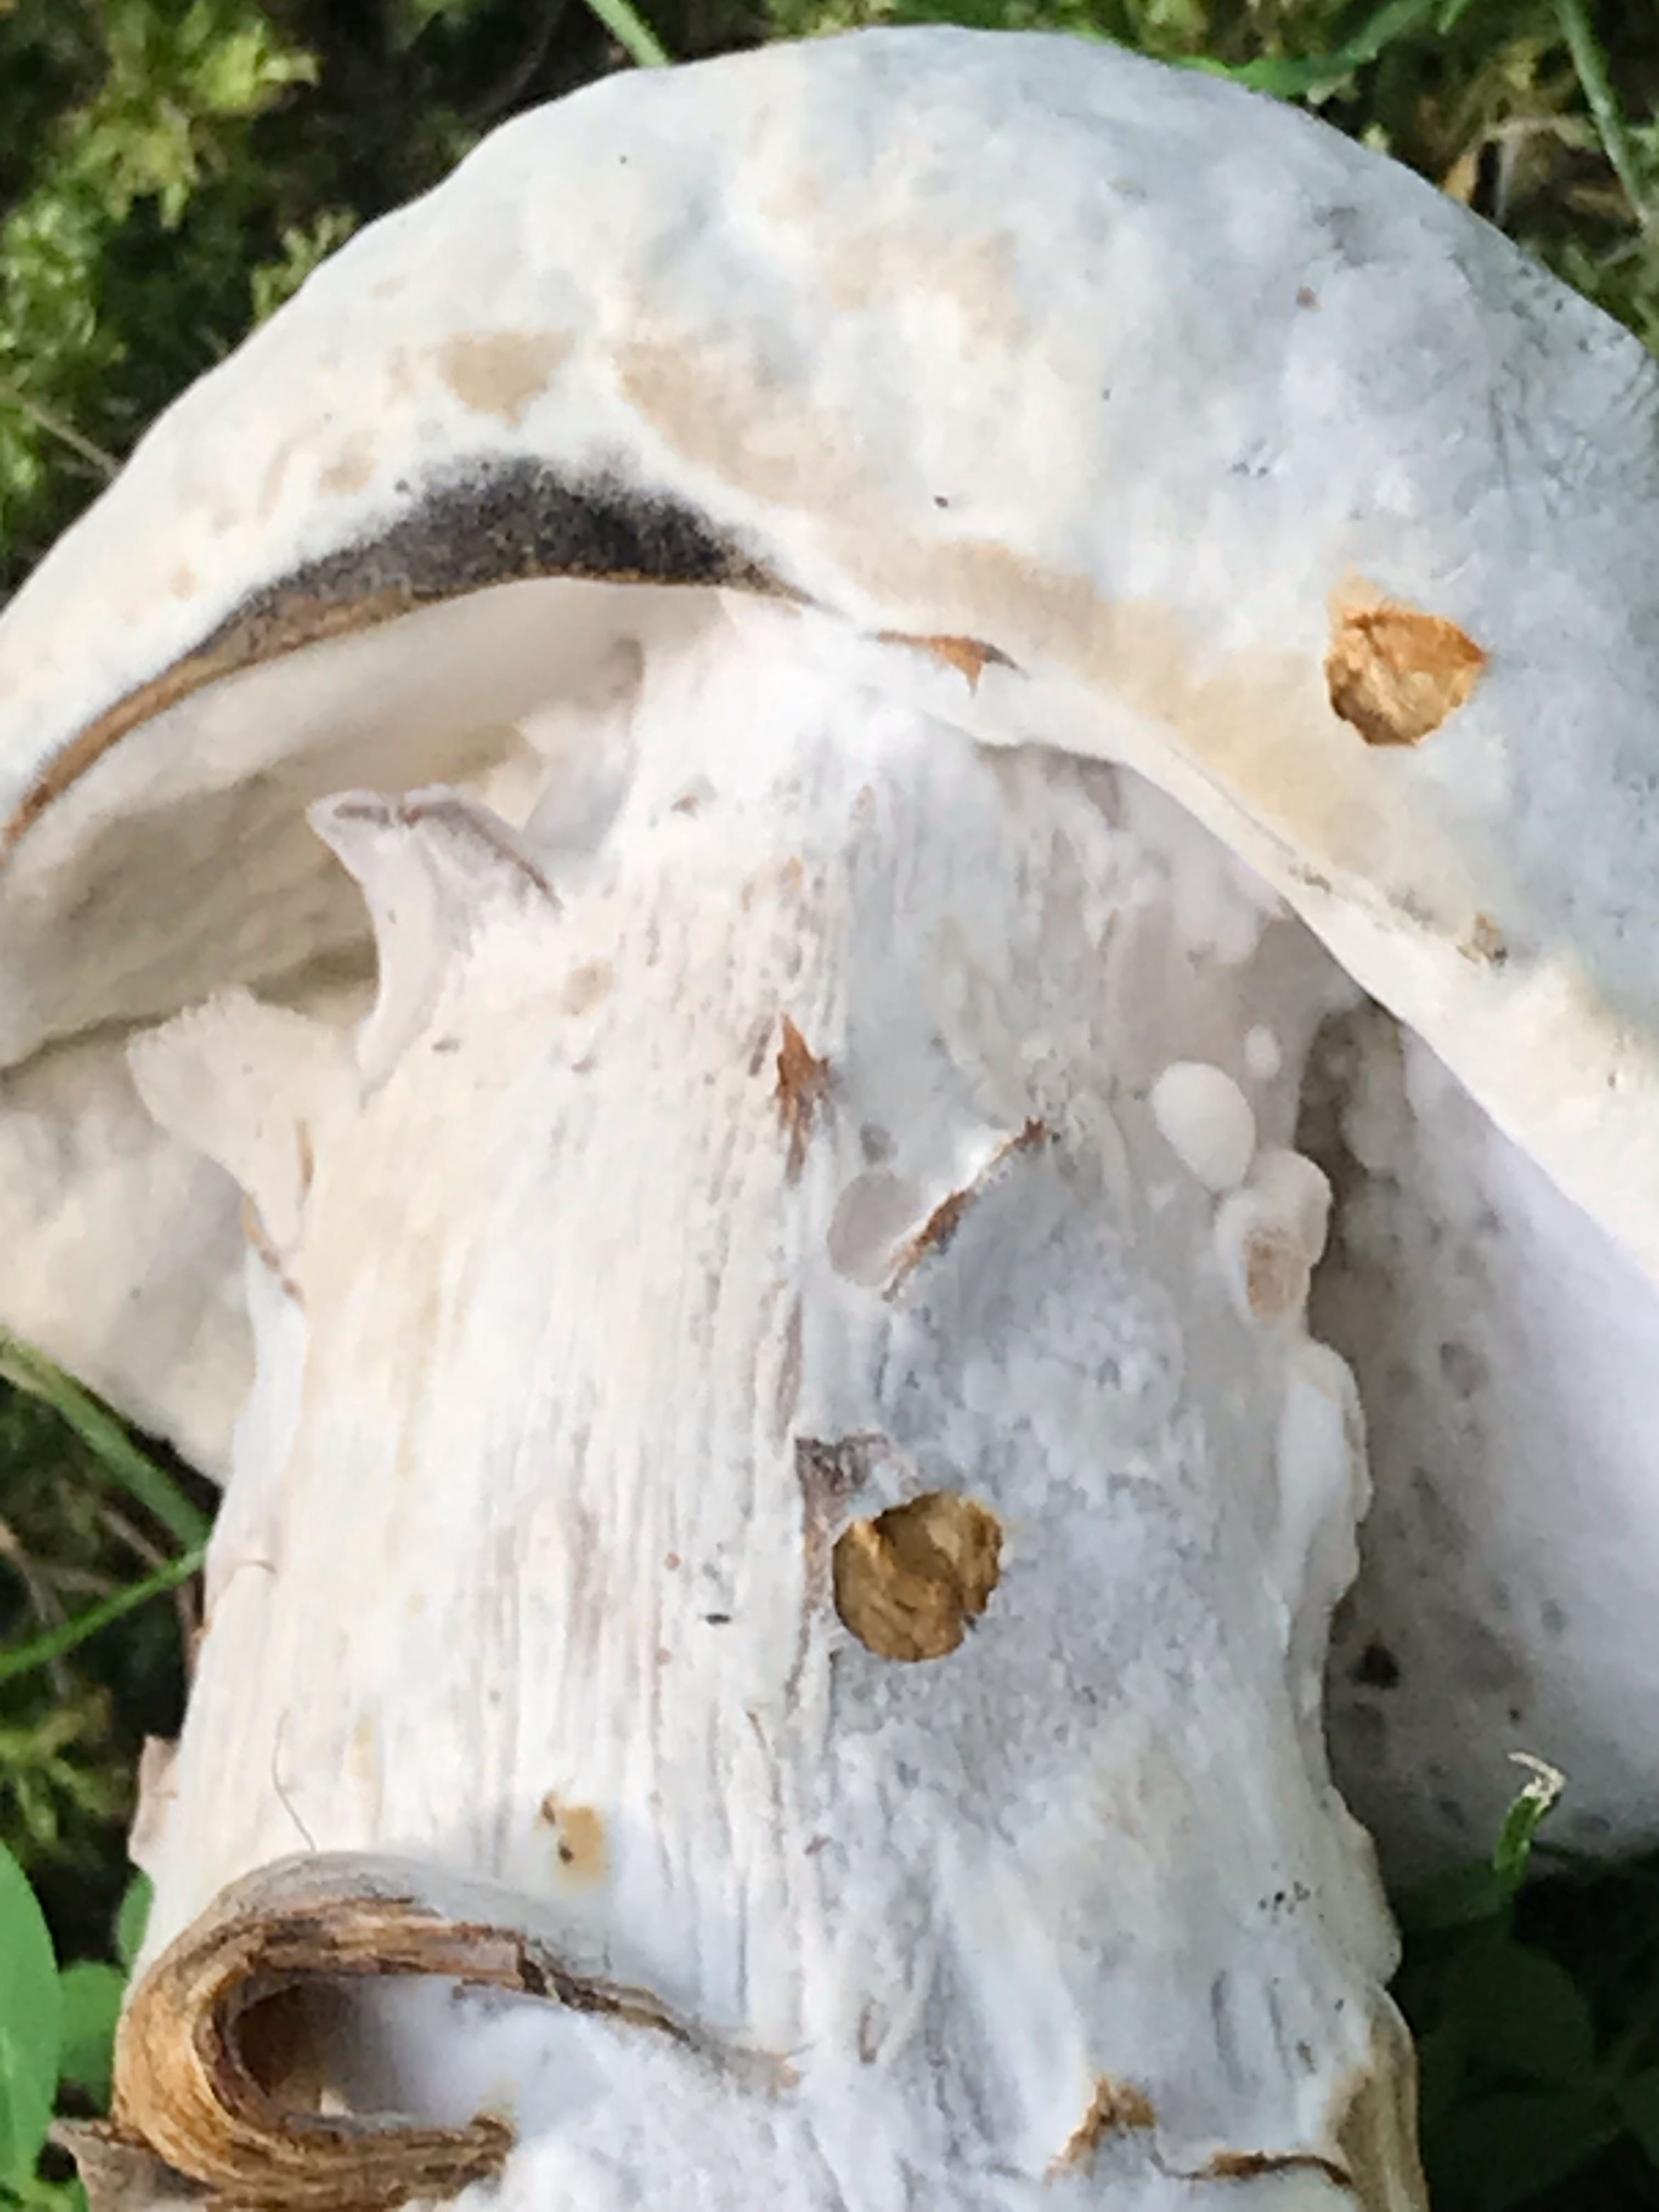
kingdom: Fungi
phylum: Ascomycota
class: Sordariomycetes
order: Hypocreales
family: Hypocreaceae
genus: Hypomyces
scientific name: Hypomyces microspermus
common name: dværgrørhat-snylteskorpe
